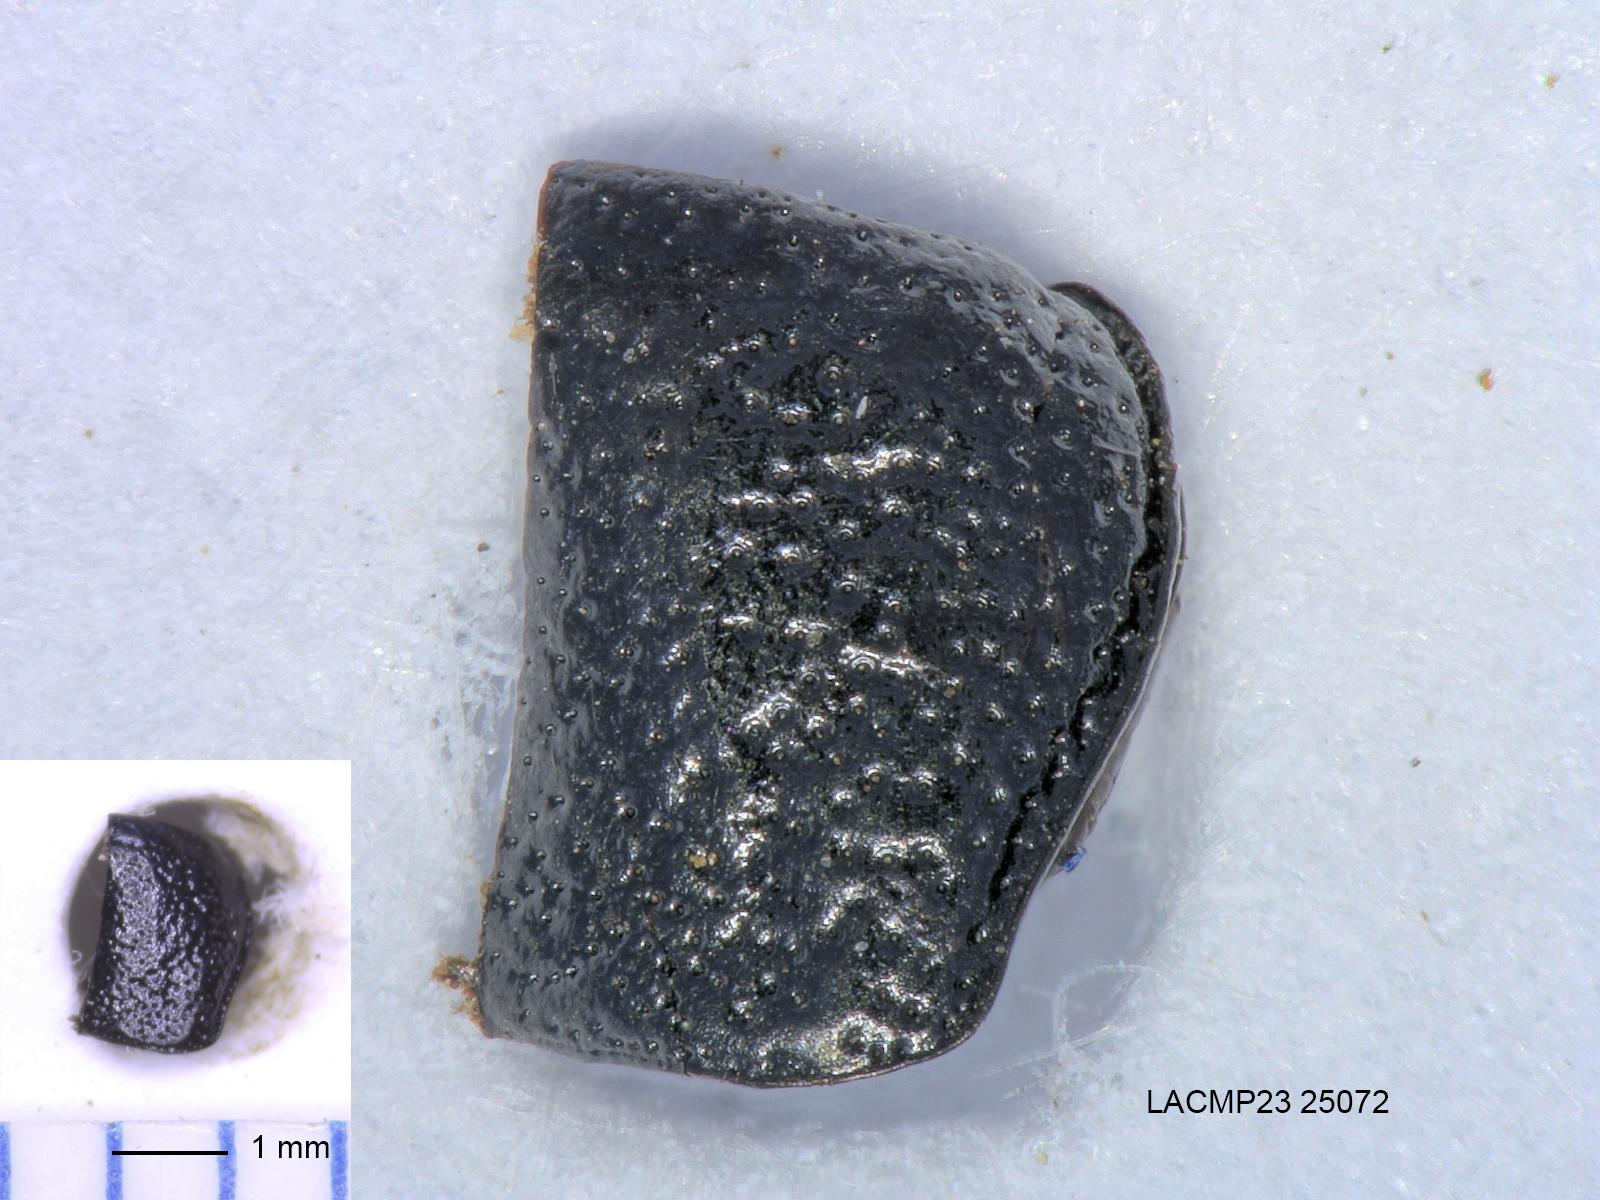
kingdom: Animalia
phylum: Arthropoda
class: Insecta
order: Coleoptera
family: Carabidae
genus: Dicheirus
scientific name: Dicheirus dilatatus
